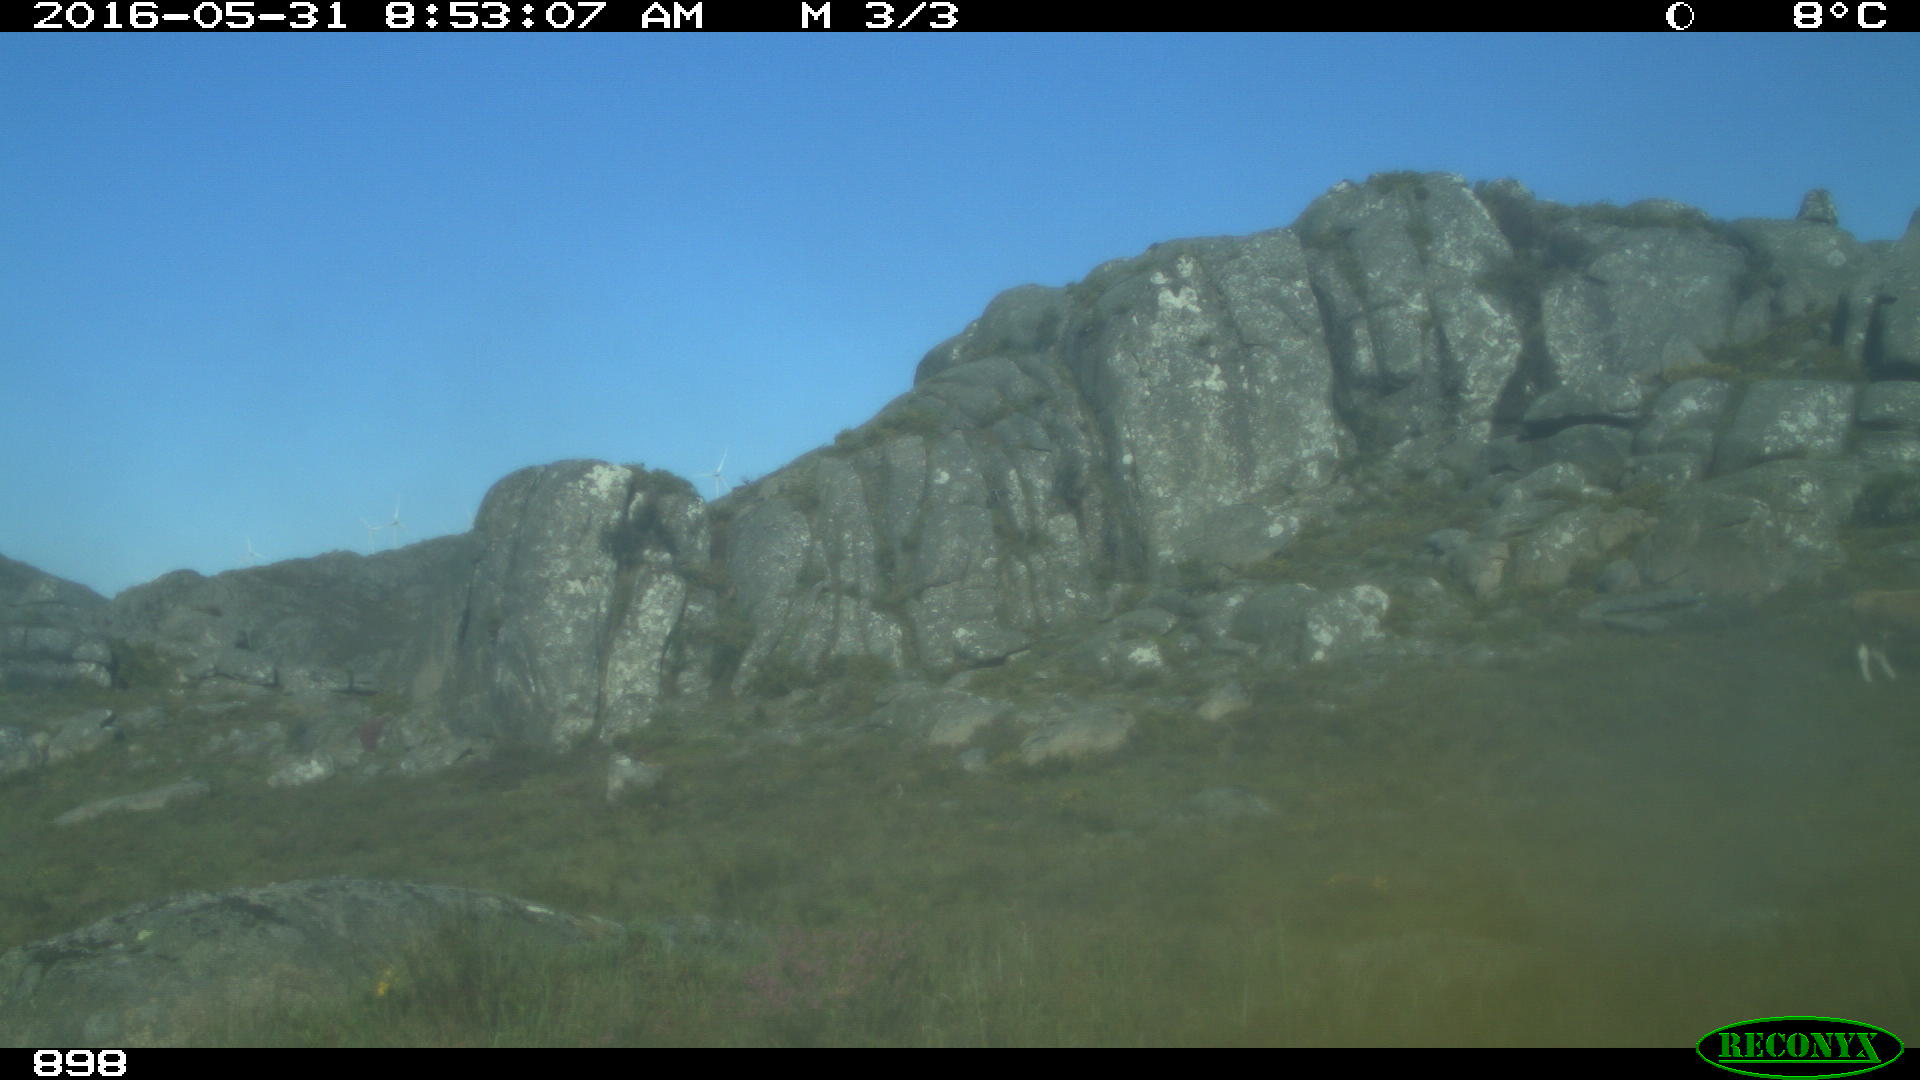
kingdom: Animalia
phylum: Chordata
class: Mammalia
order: Artiodactyla
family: Bovidae
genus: Bos
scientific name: Bos taurus
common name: Domesticated cattle
